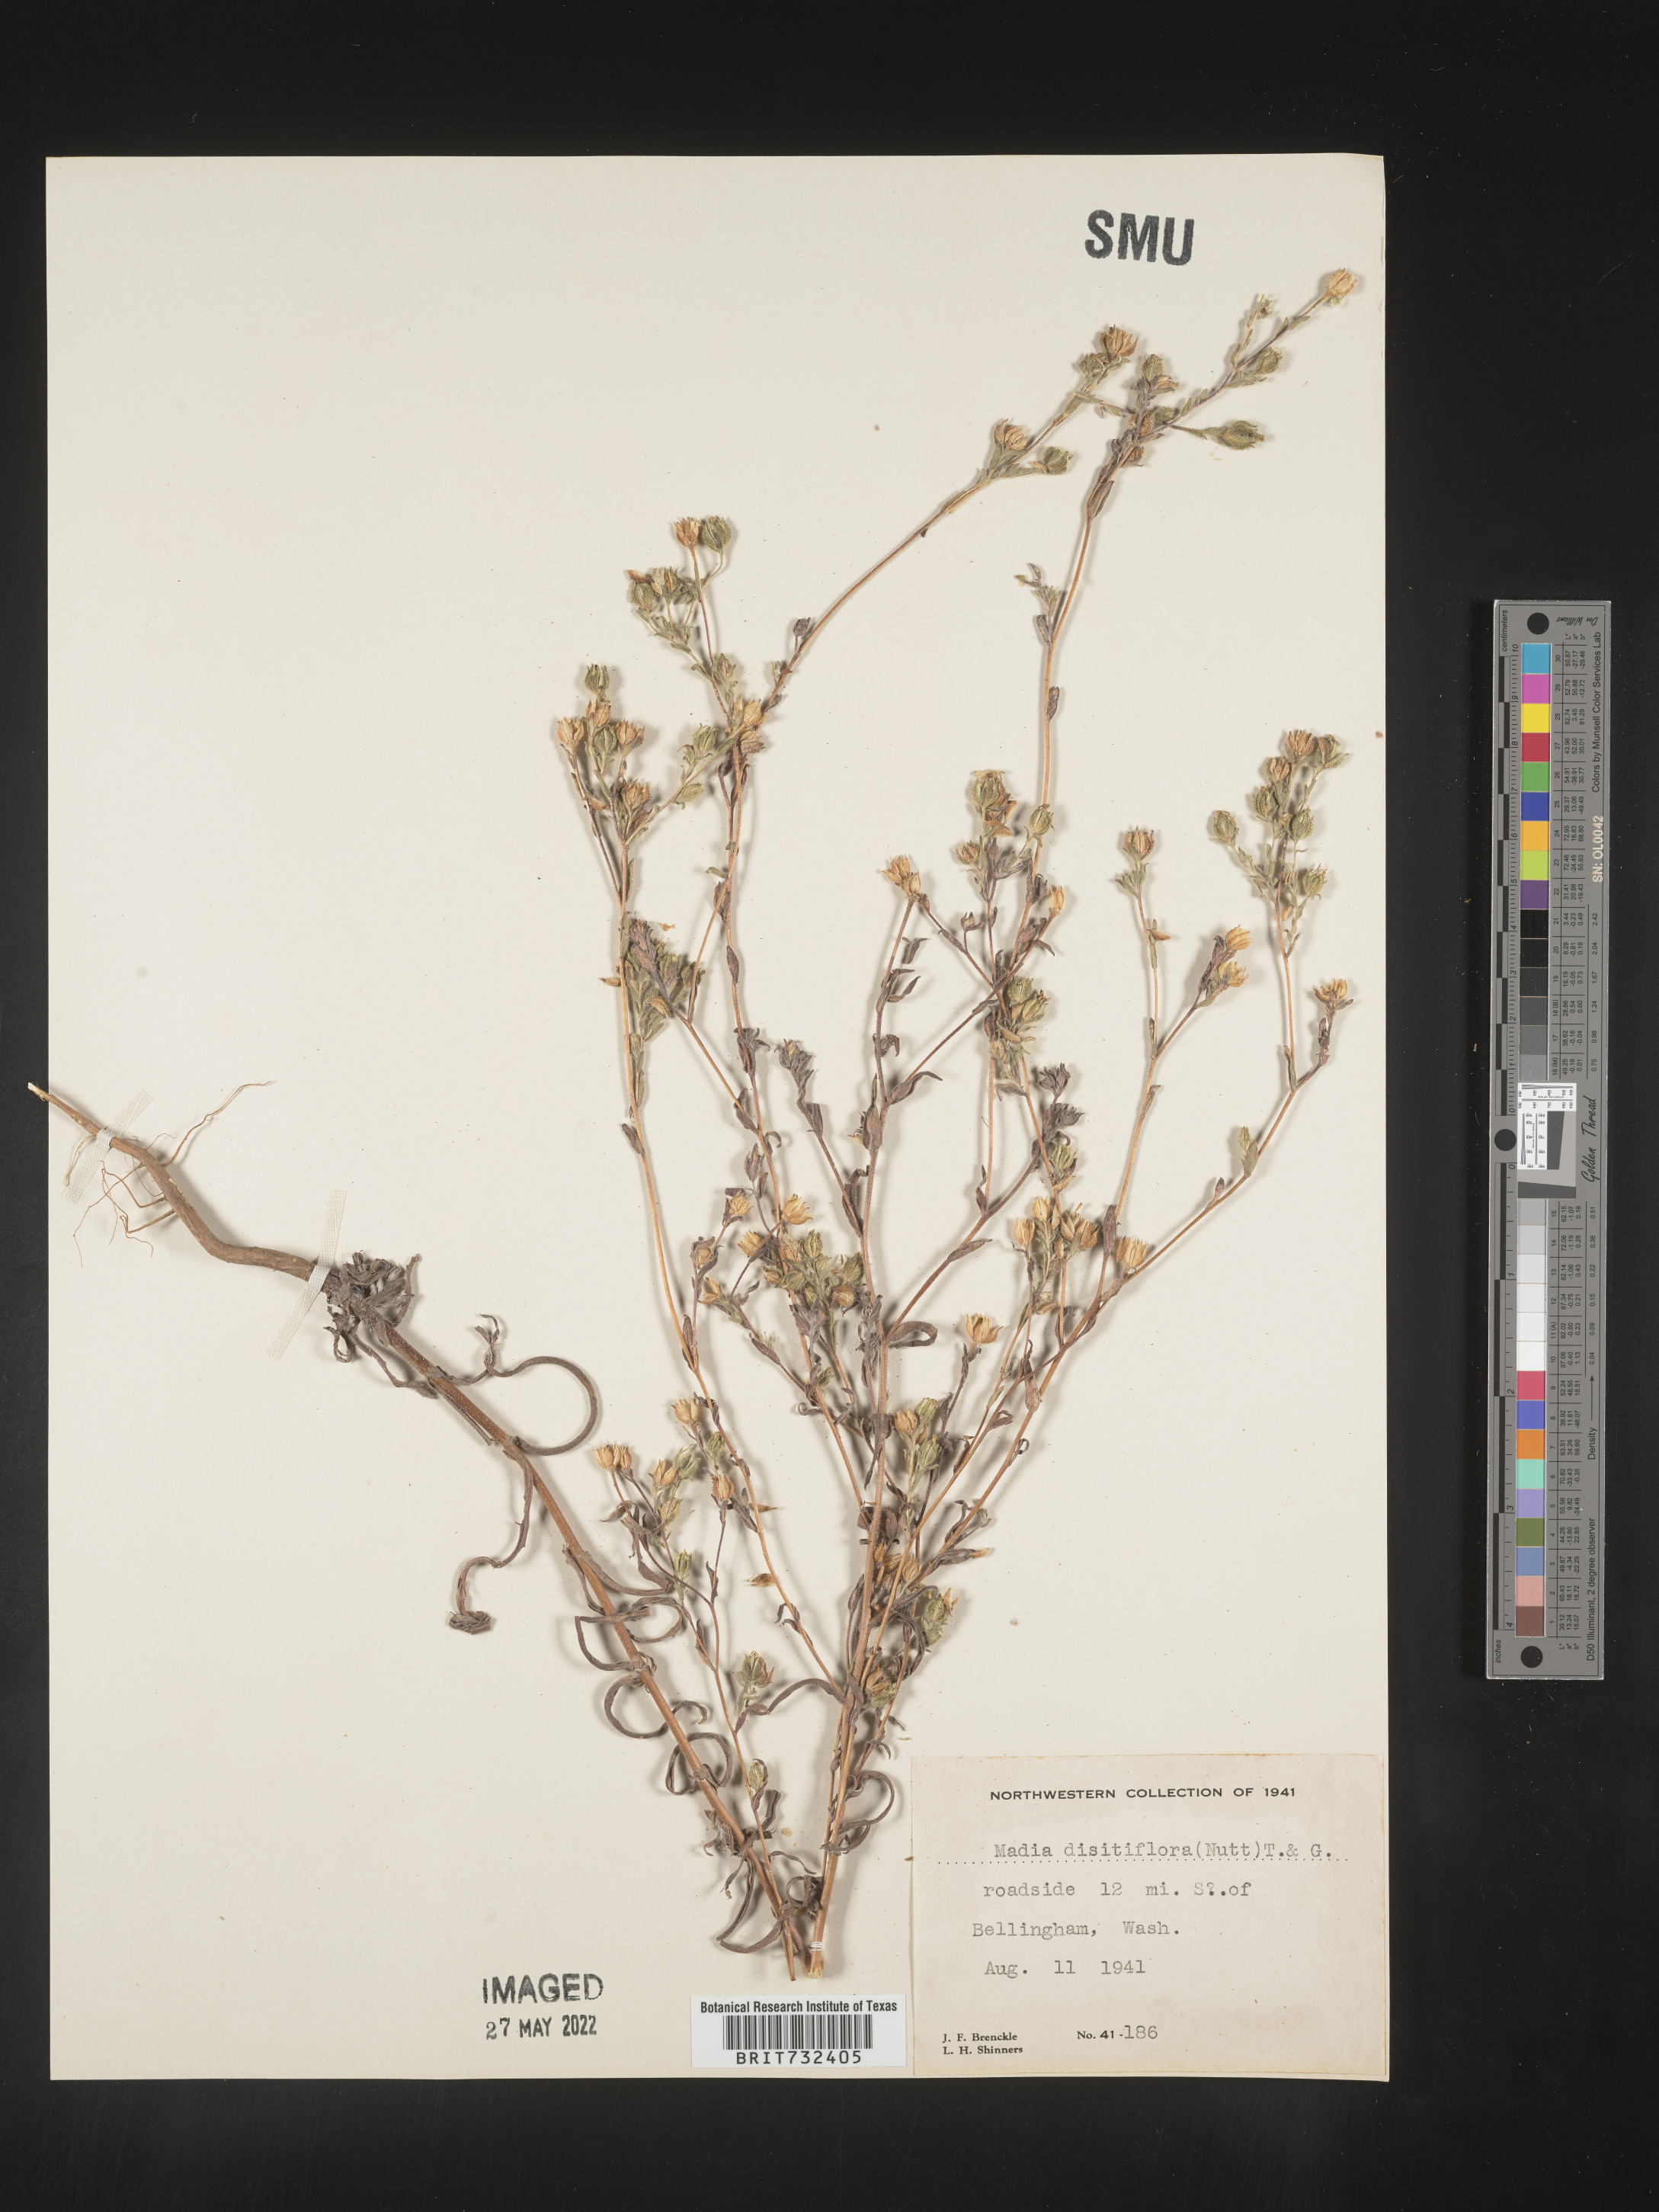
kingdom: Plantae
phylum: Tracheophyta
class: Magnoliopsida
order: Asterales
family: Asteraceae
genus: Madia
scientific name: Madia gracilis
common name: Grassy tarweed
